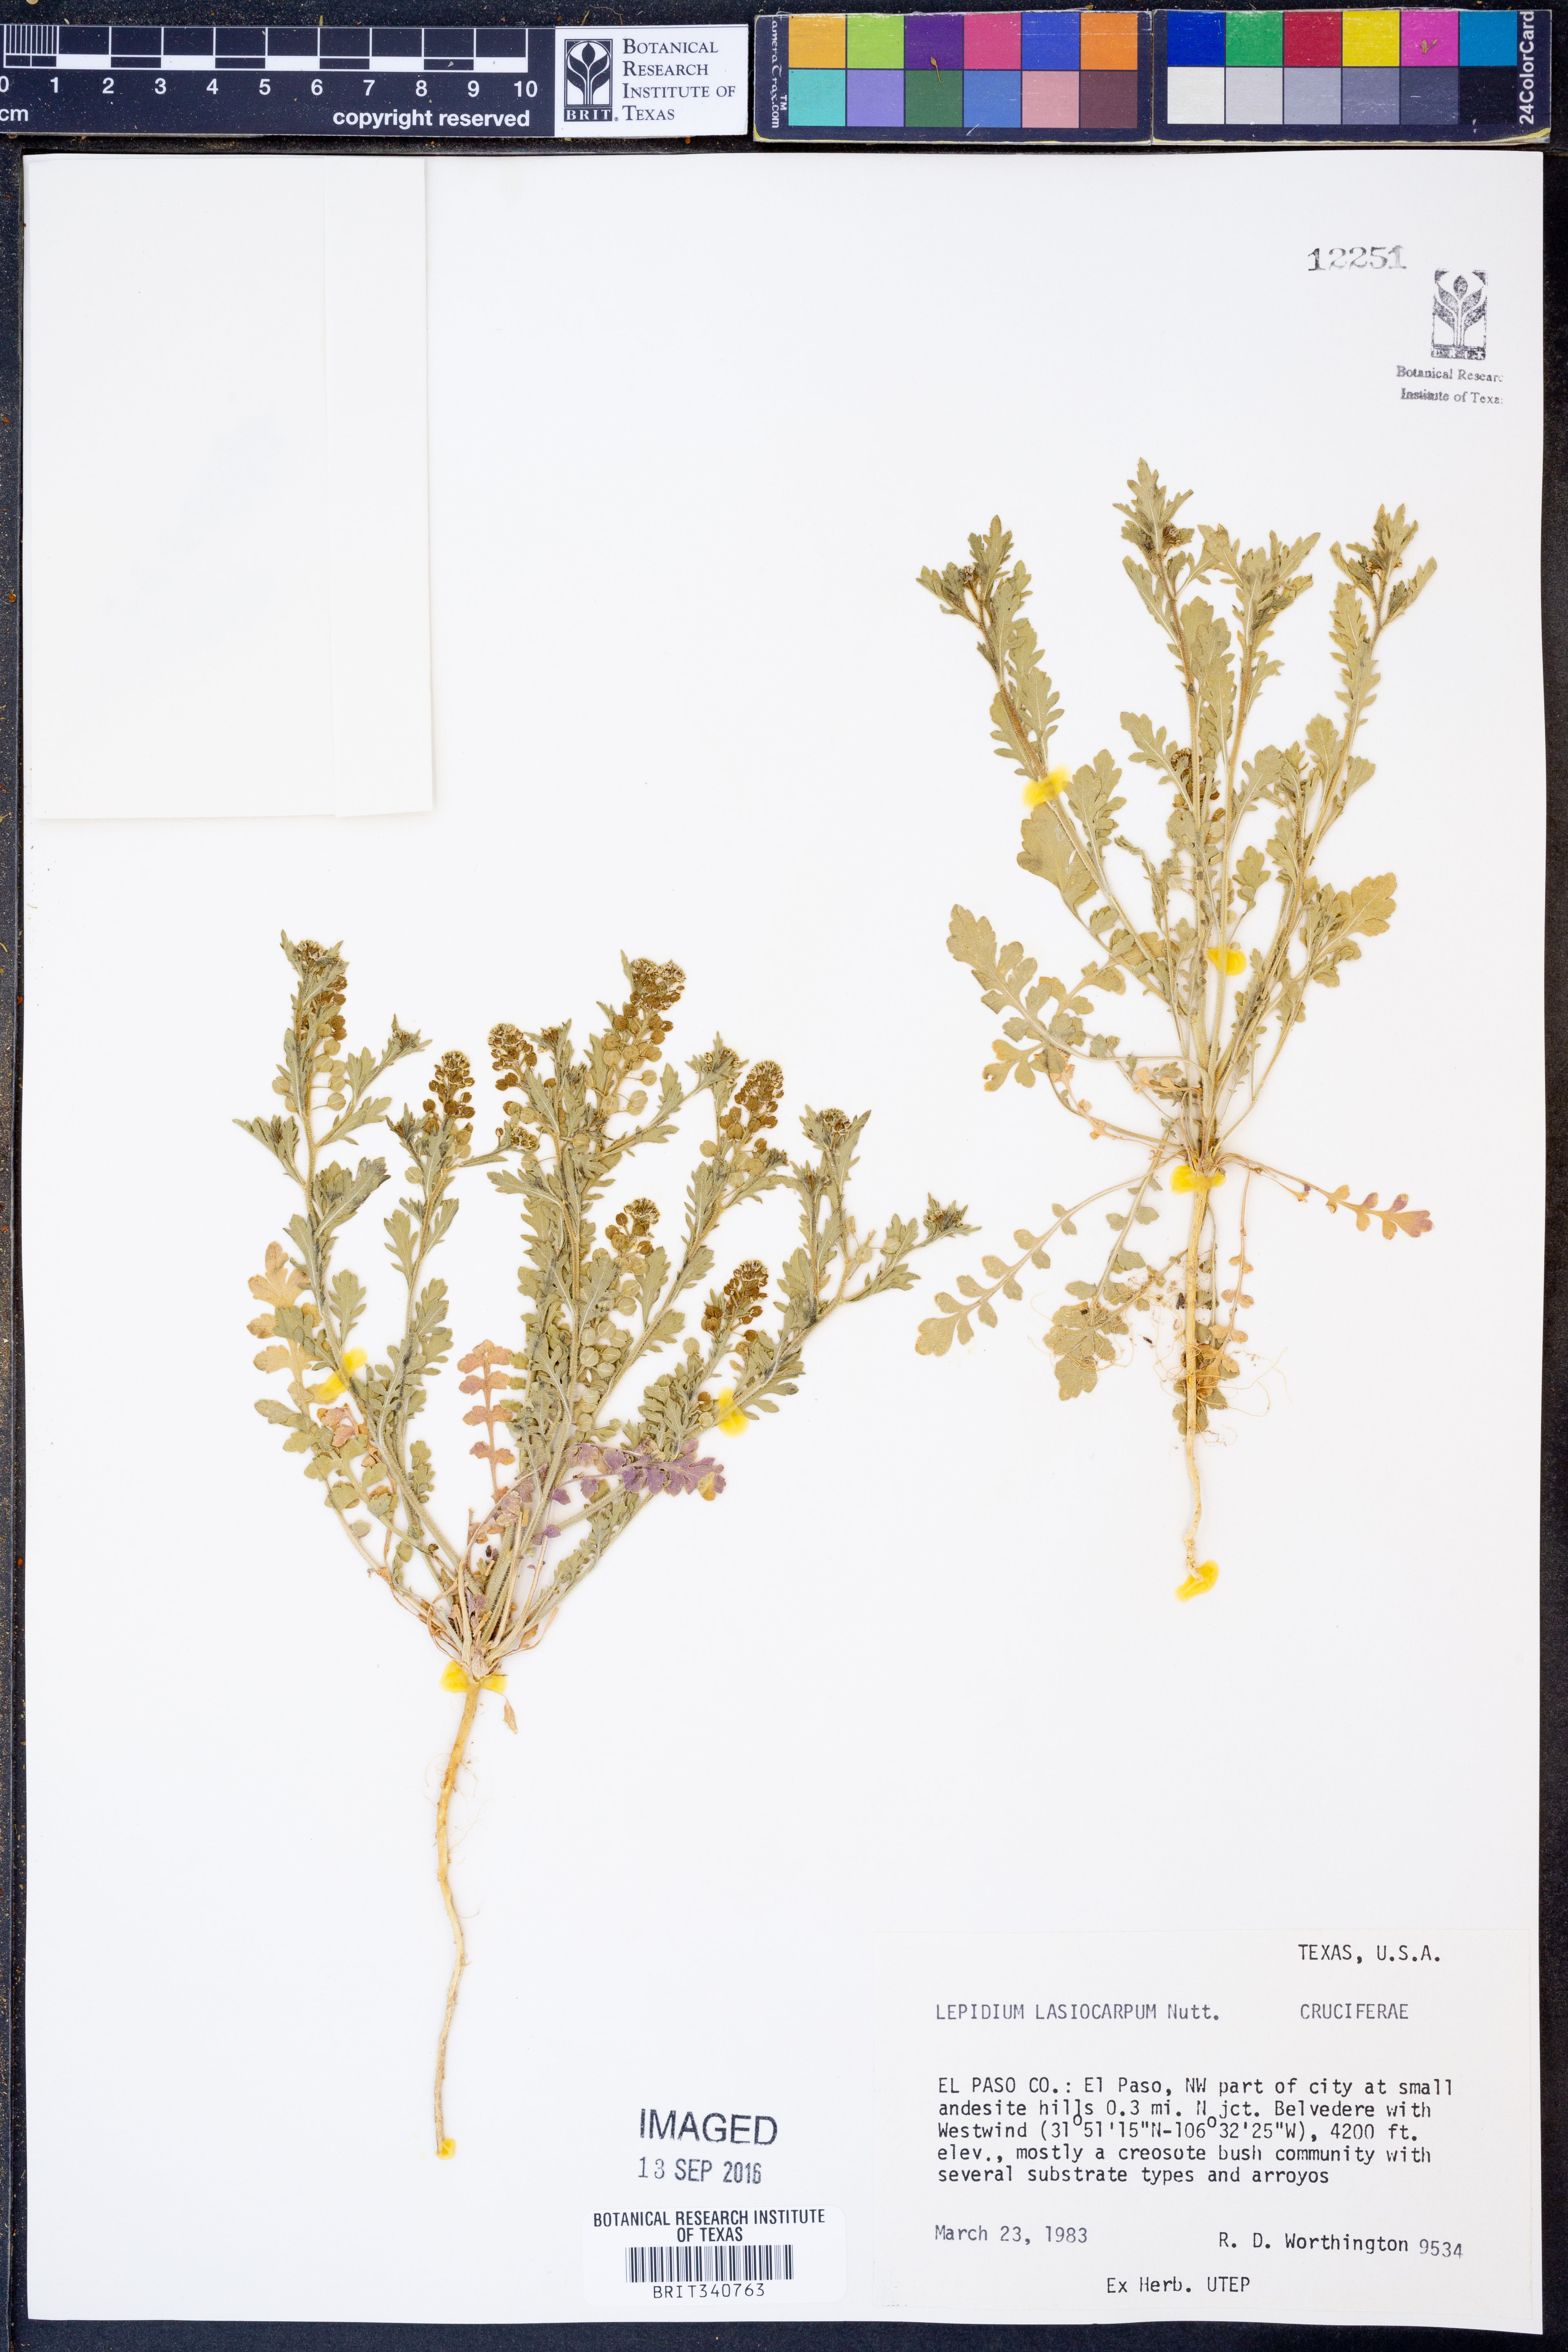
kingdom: Plantae
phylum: Tracheophyta
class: Magnoliopsida
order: Brassicales
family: Brassicaceae
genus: Lepidium
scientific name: Lepidium lasiocarpum
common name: Hairy-pod pepperwort
